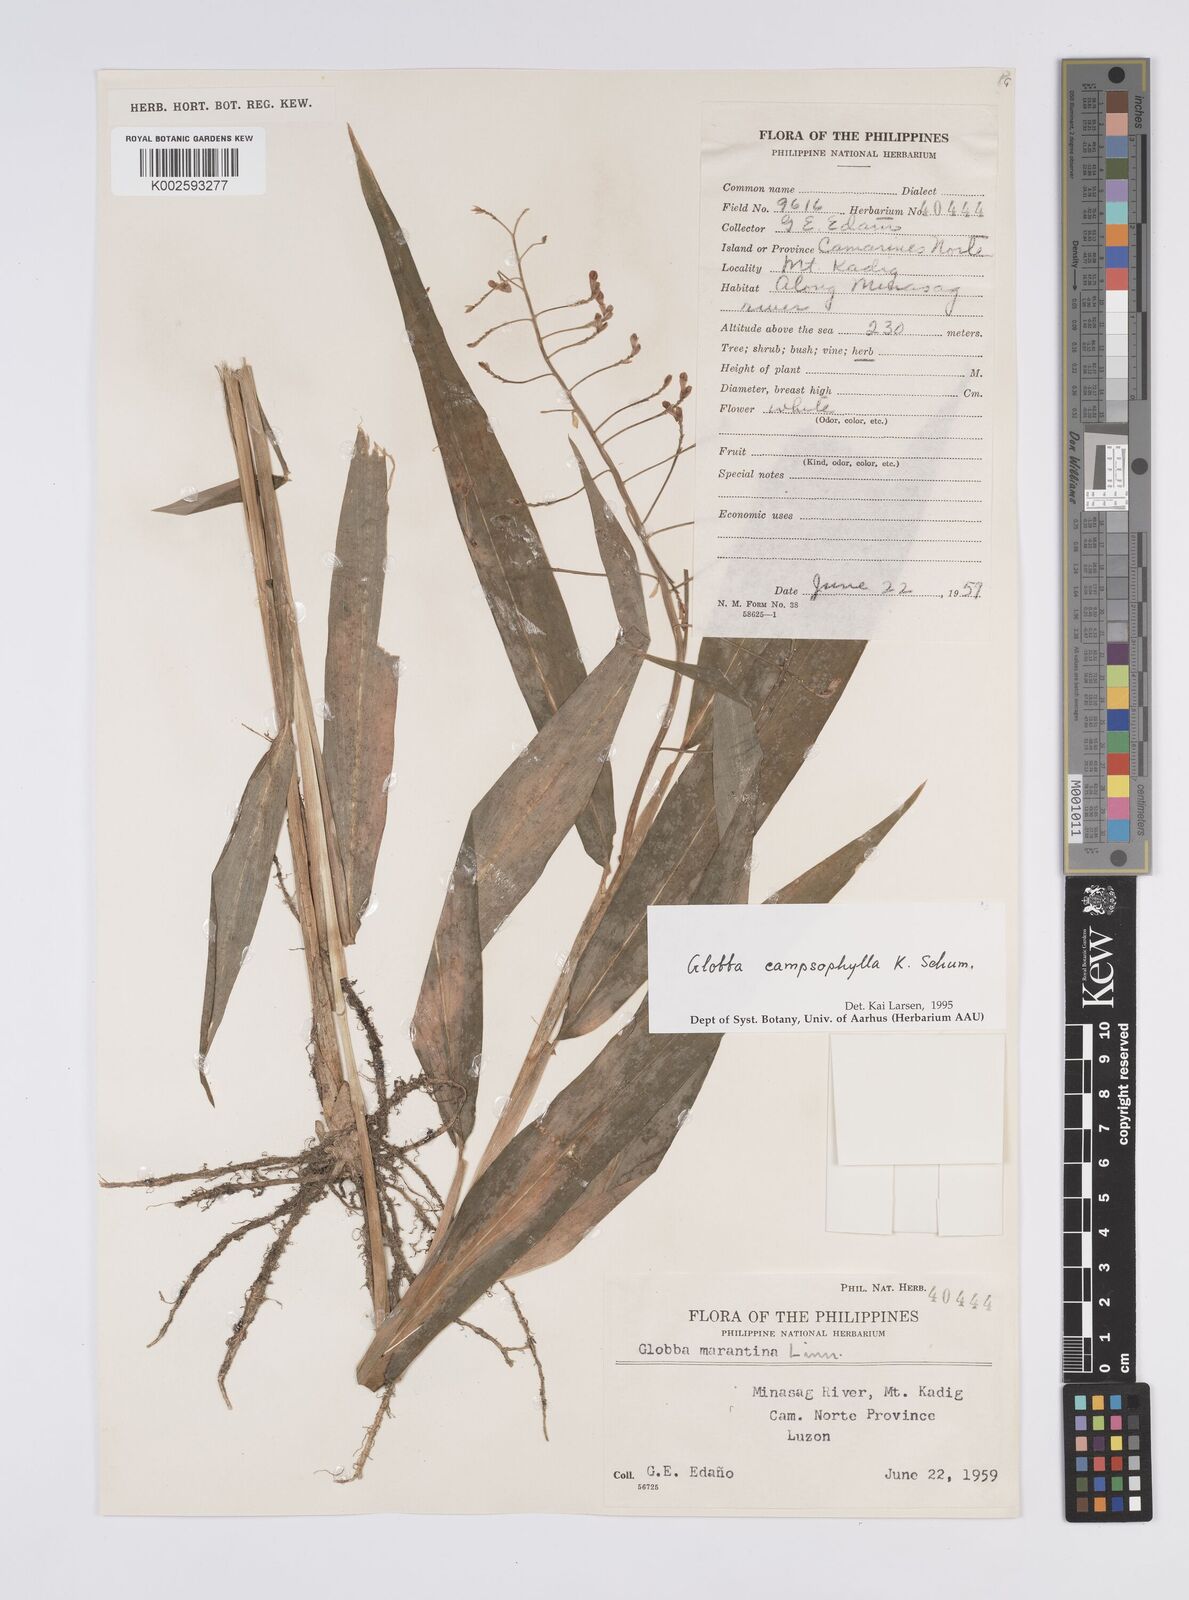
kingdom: Plantae
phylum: Tracheophyta
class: Liliopsida
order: Zingiberales
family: Zingiberaceae
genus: Globba
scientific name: Globba campsophylla
